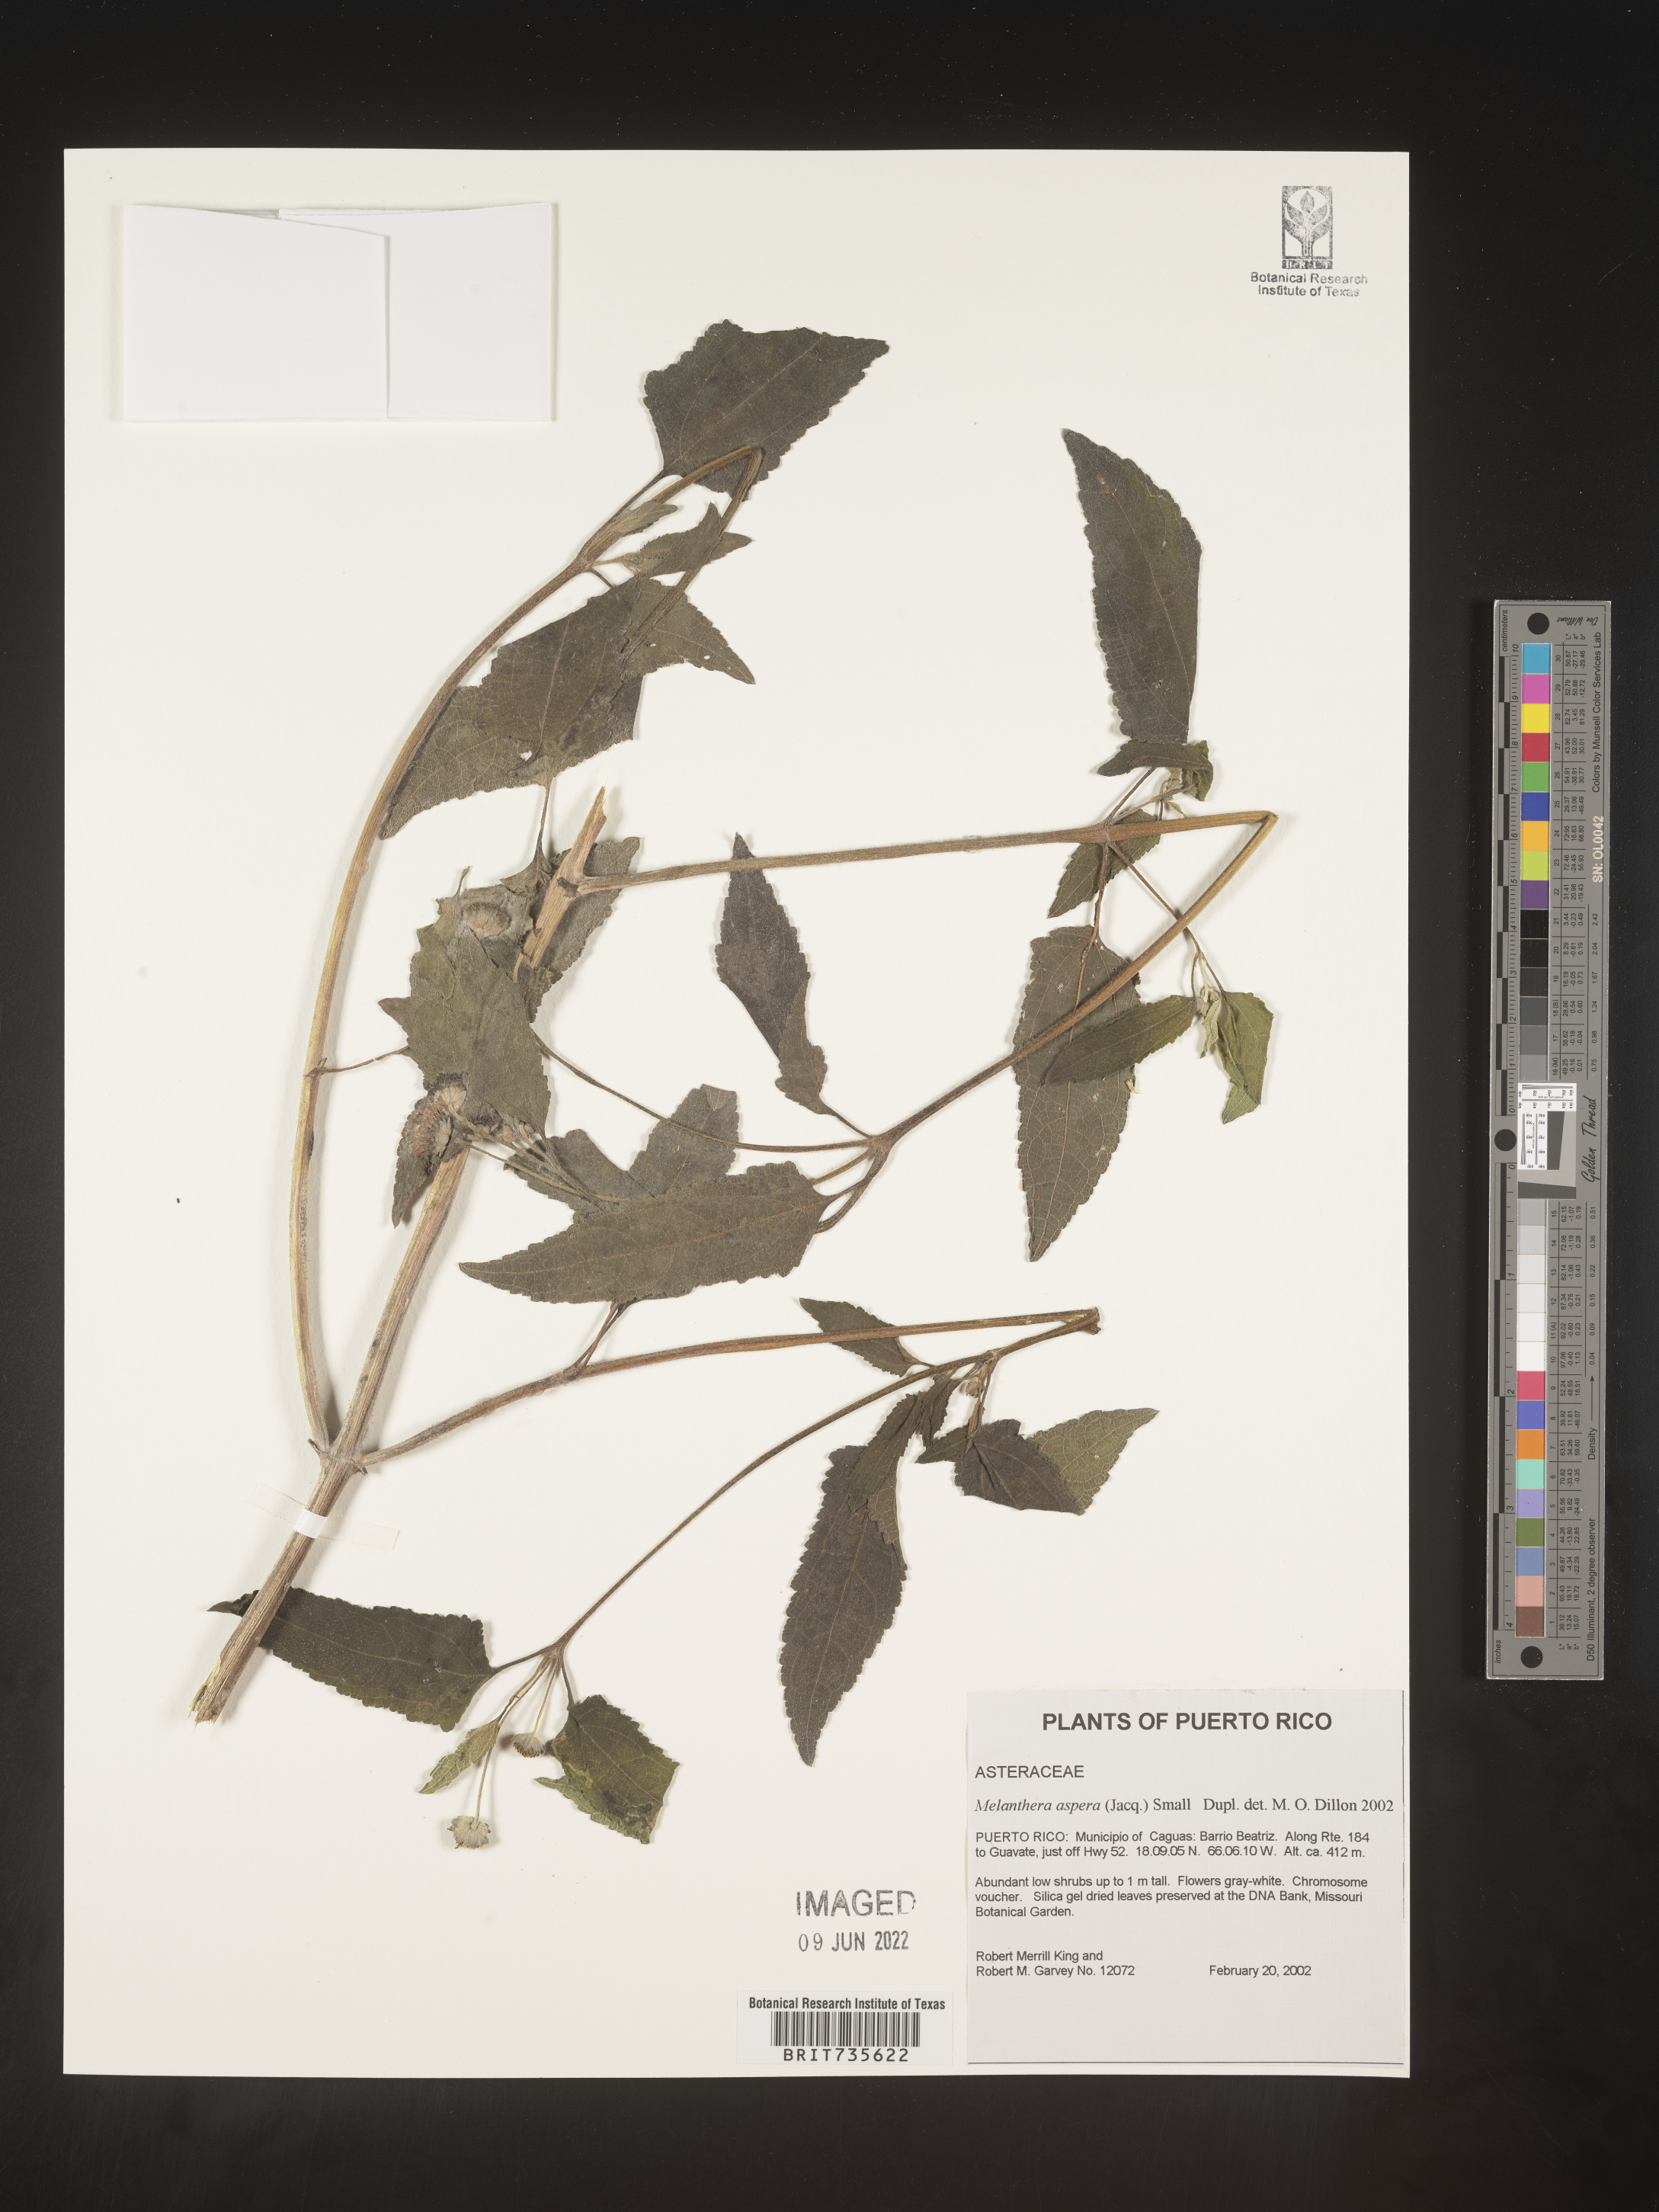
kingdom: Plantae
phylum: Tracheophyta
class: Magnoliopsida
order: Asterales
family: Asteraceae
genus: Melanthera
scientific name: Melanthera
